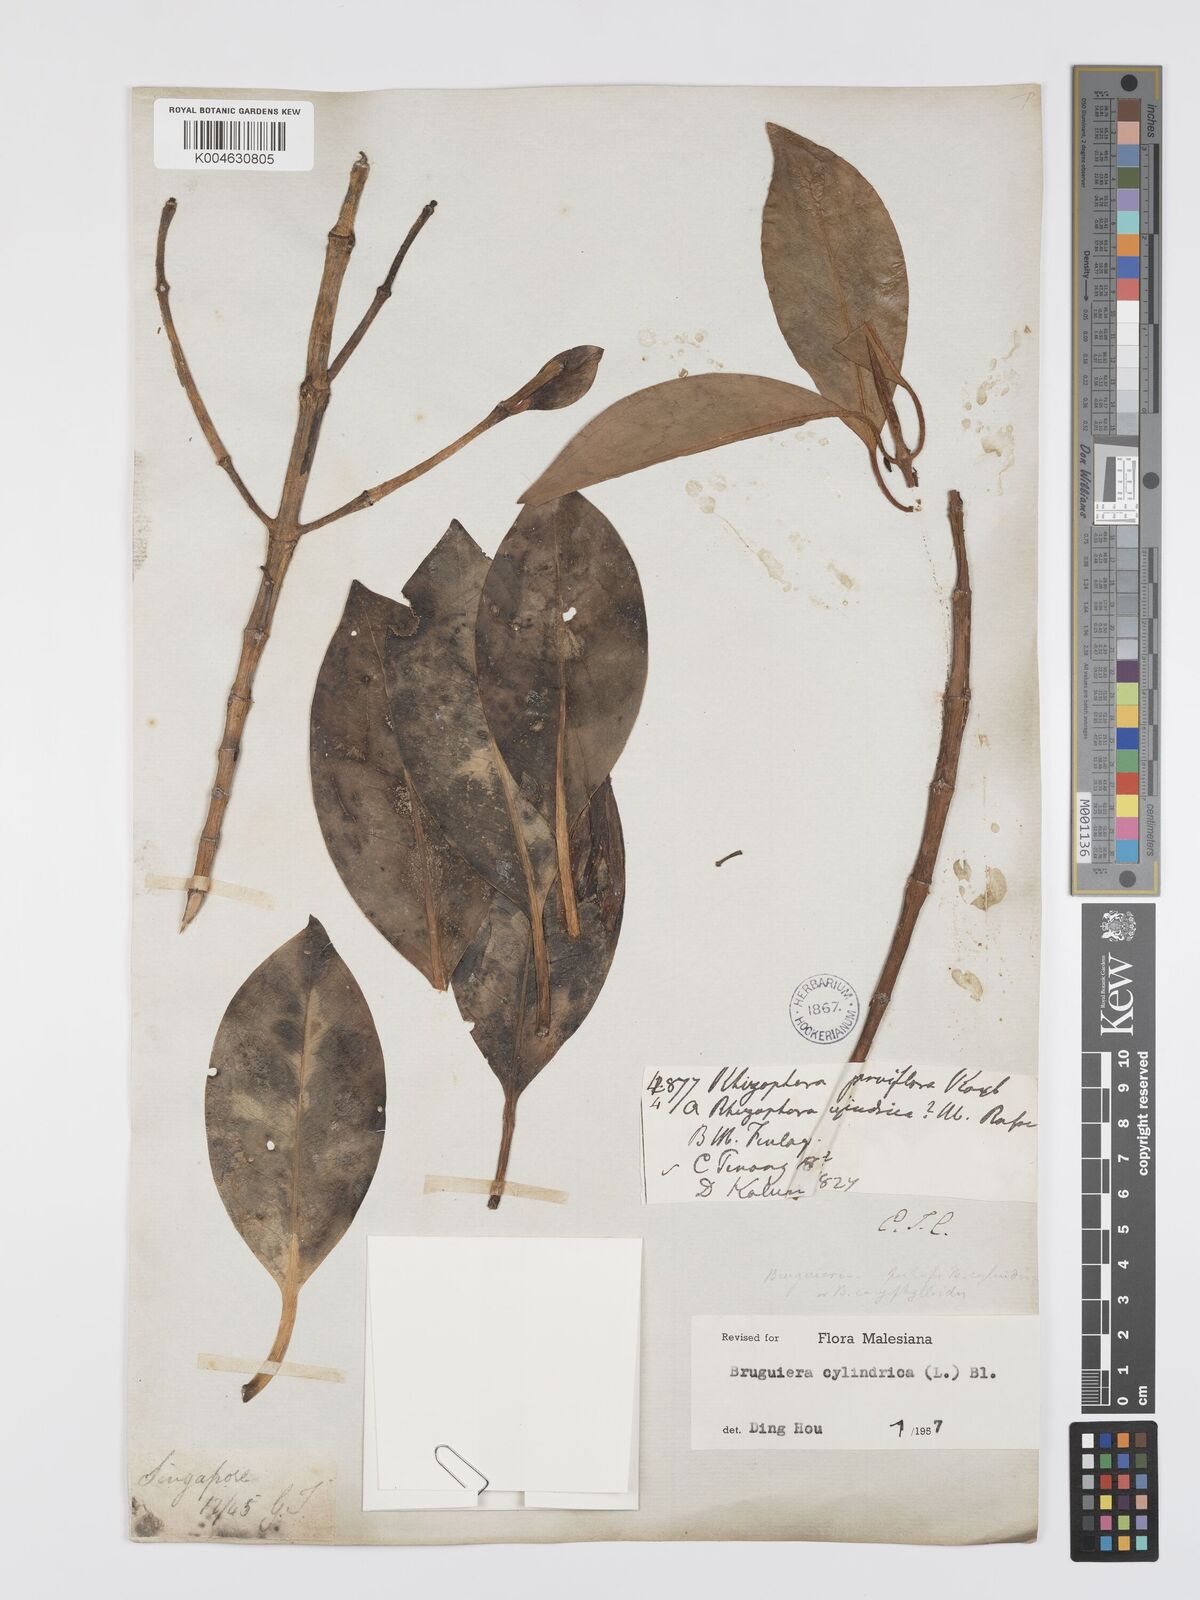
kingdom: Plantae
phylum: Tracheophyta
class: Magnoliopsida
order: Malpighiales
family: Rhizophoraceae
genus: Bruguiera
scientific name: Bruguiera cylindrica
